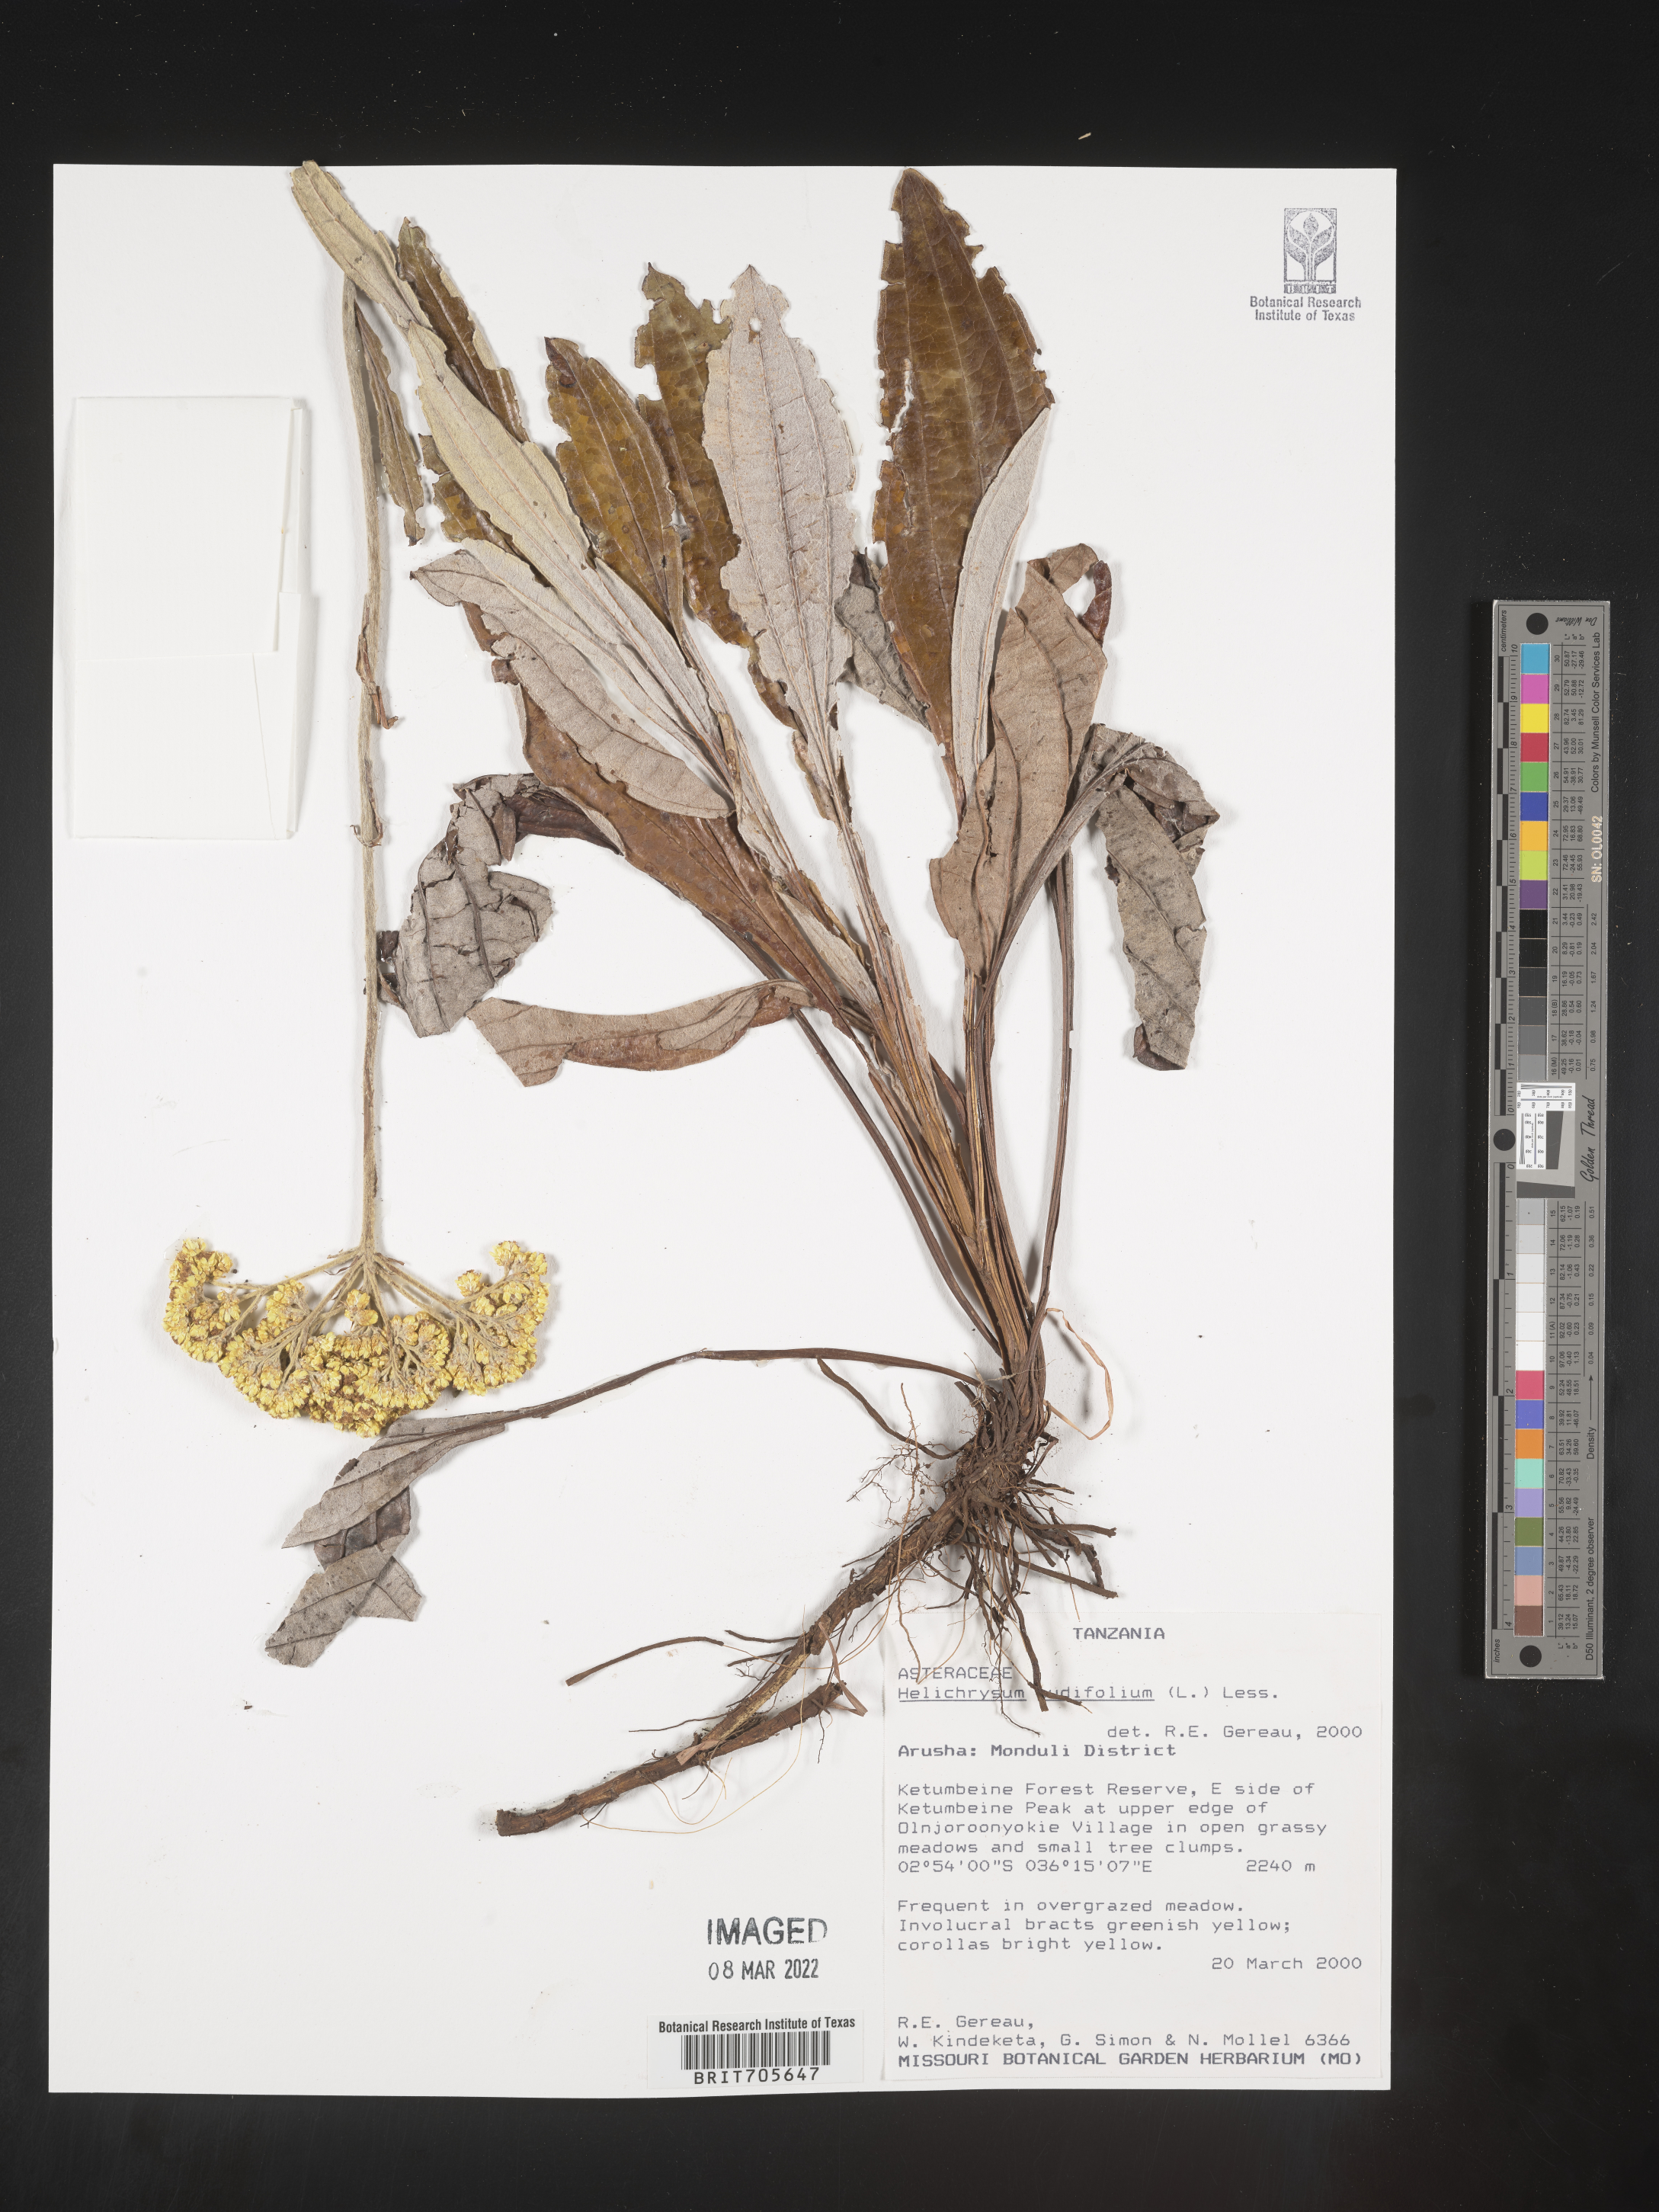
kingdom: Plantae
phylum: Tracheophyta
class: Magnoliopsida
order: Asterales
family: Asteraceae
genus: Helichrysum
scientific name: Helichrysum
